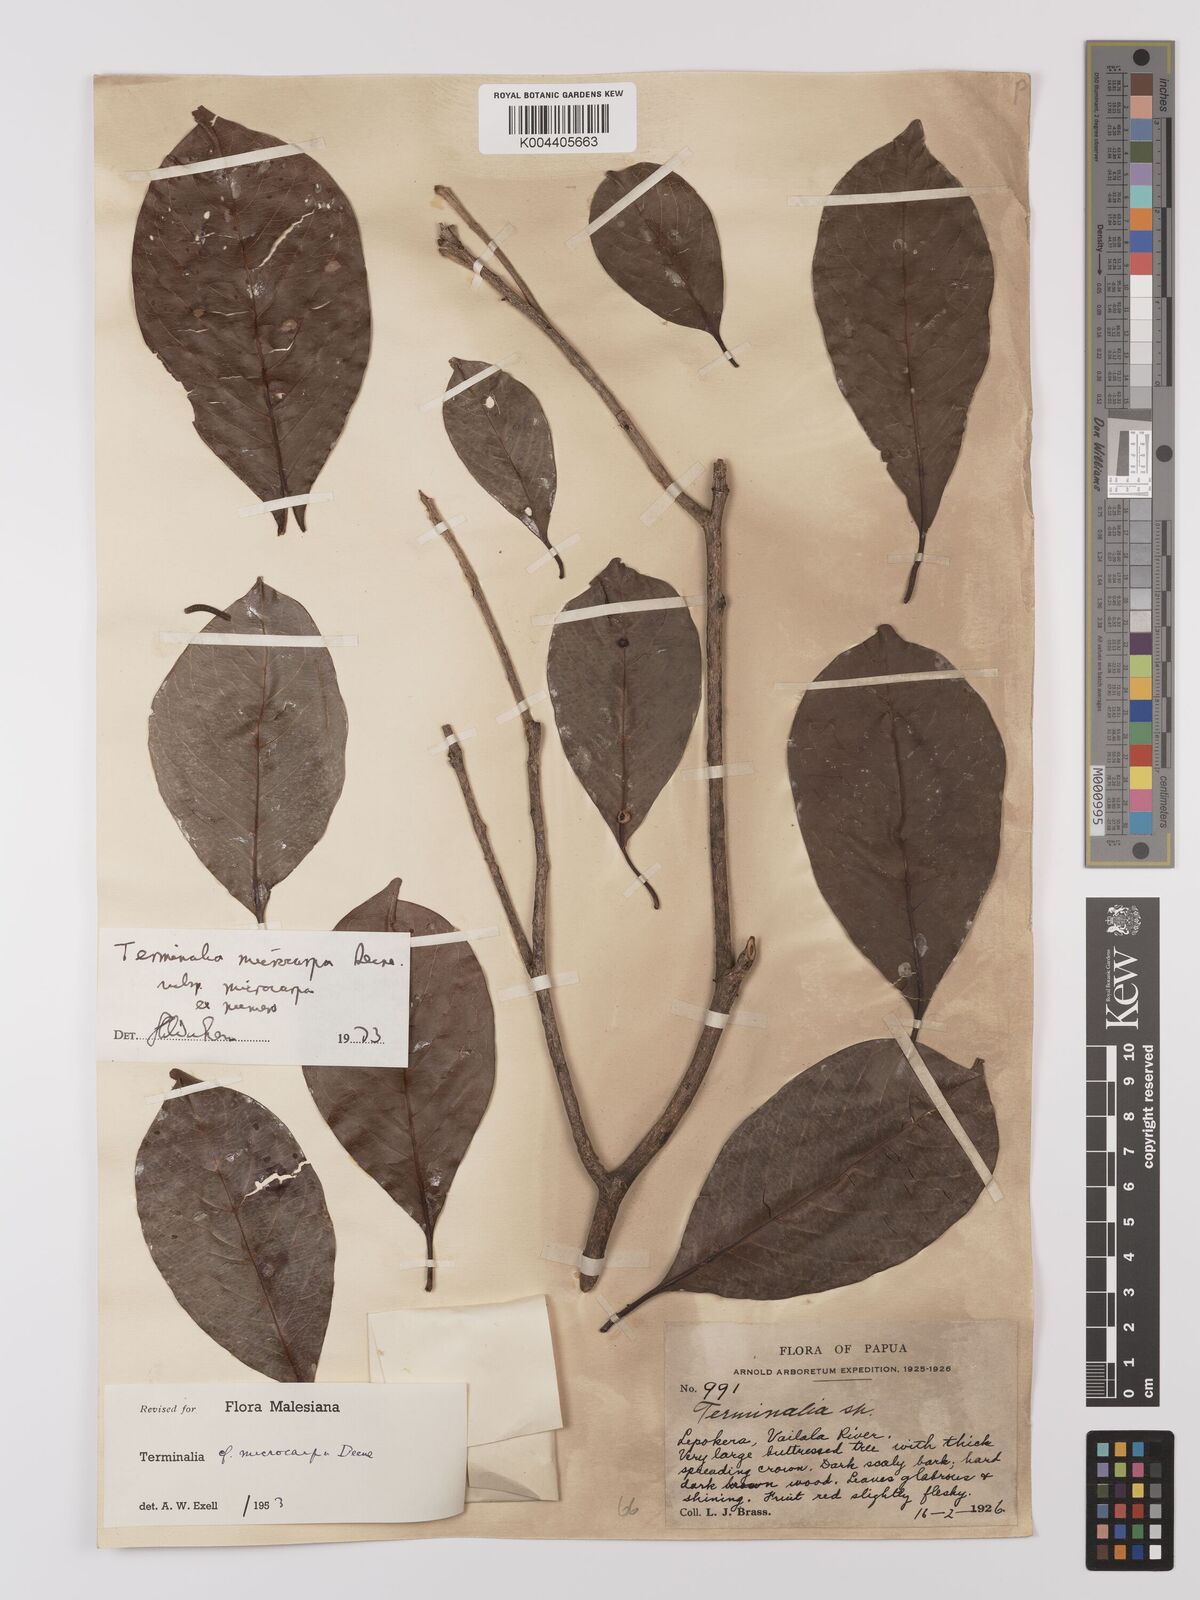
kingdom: Plantae
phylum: Tracheophyta
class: Magnoliopsida
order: Myrtales
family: Combretaceae
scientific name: Combretaceae
